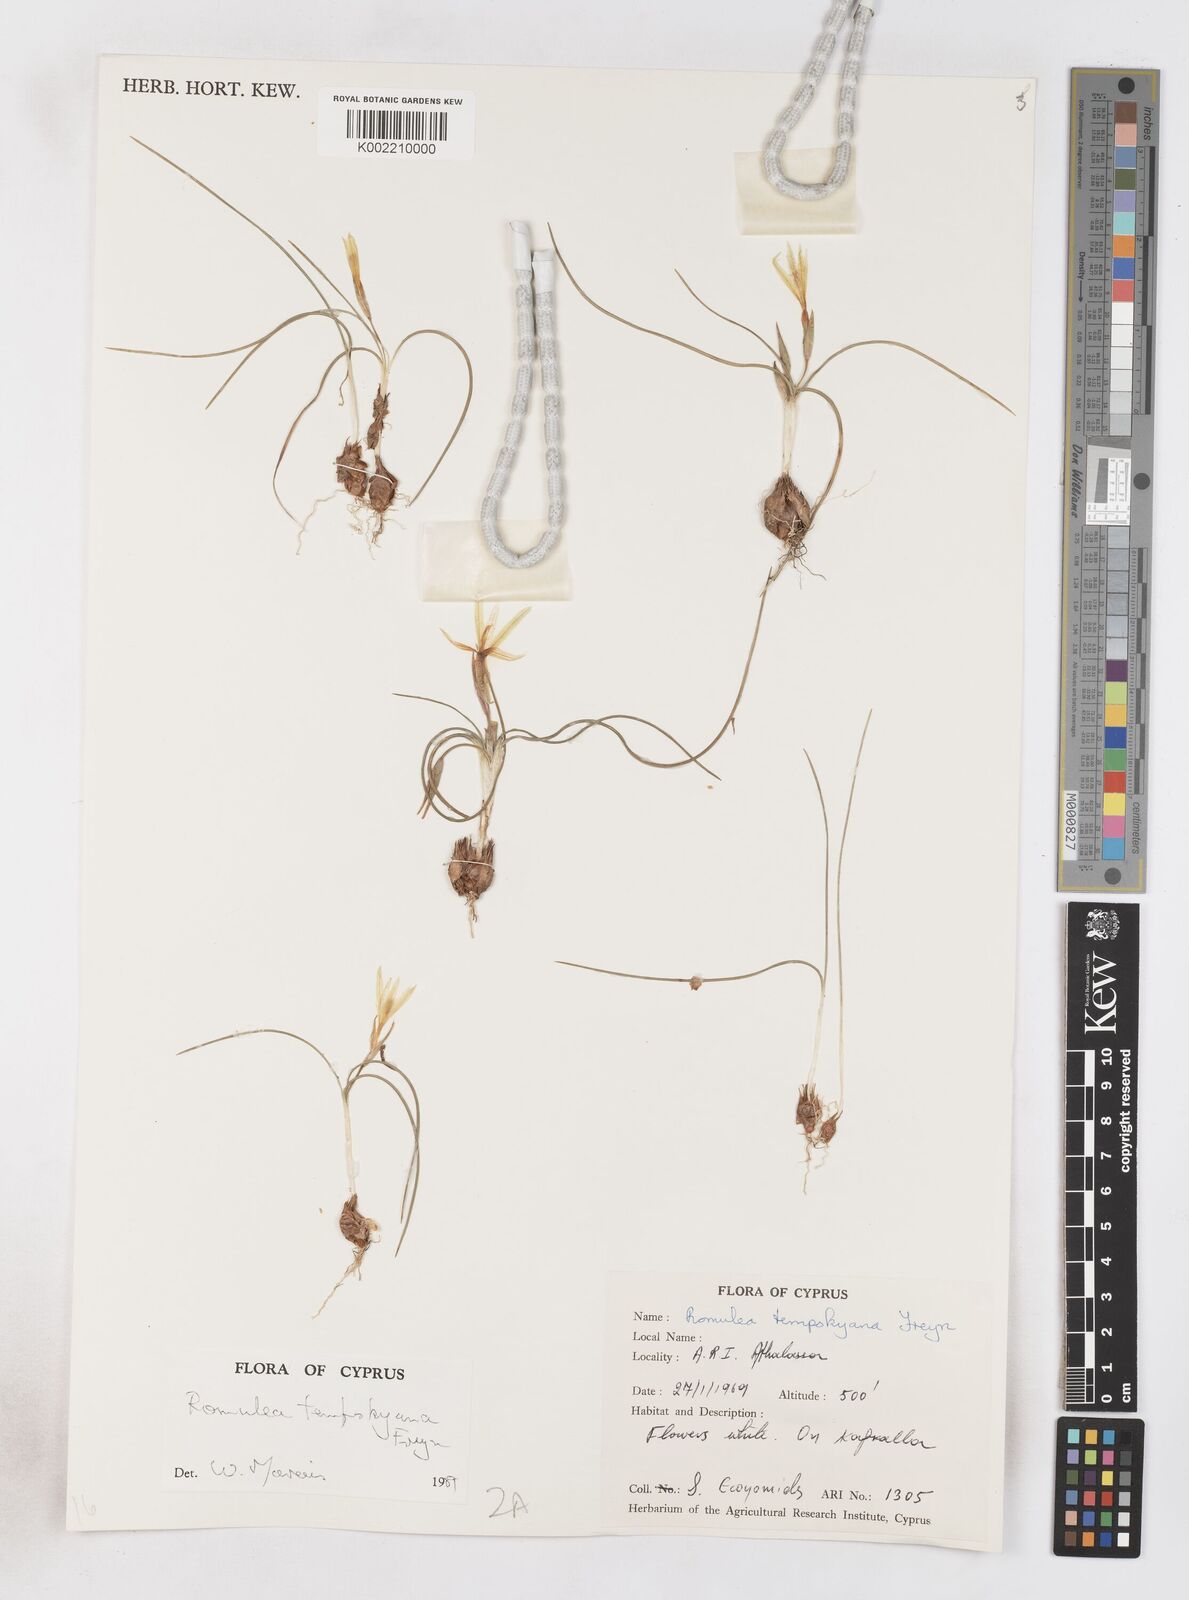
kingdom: Plantae
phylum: Tracheophyta
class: Liliopsida
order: Asparagales
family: Iridaceae
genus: Romulea
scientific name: Romulea tempskyana
